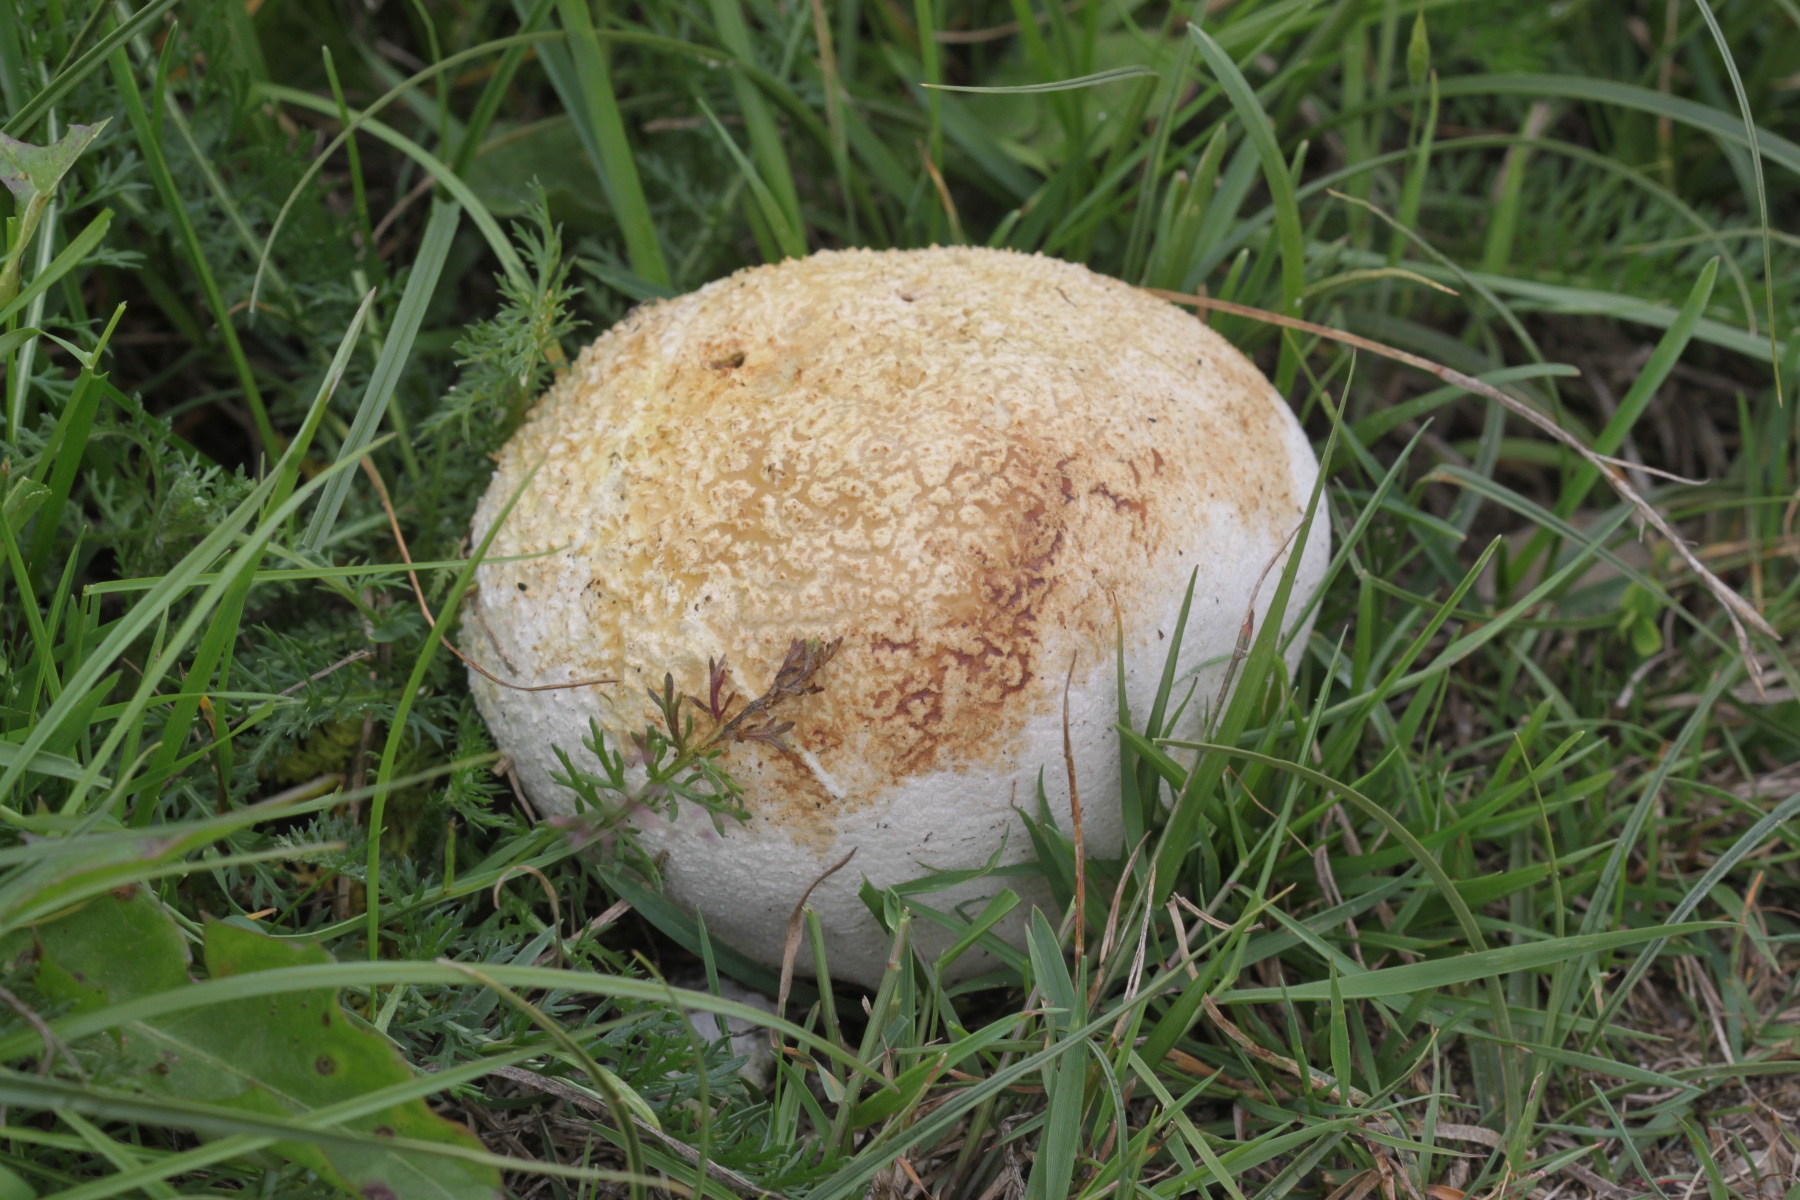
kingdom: Fungi
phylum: Basidiomycota
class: Agaricomycetes
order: Agaricales
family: Agaricaceae
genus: Lycoperdon
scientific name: Lycoperdon
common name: støvbold
